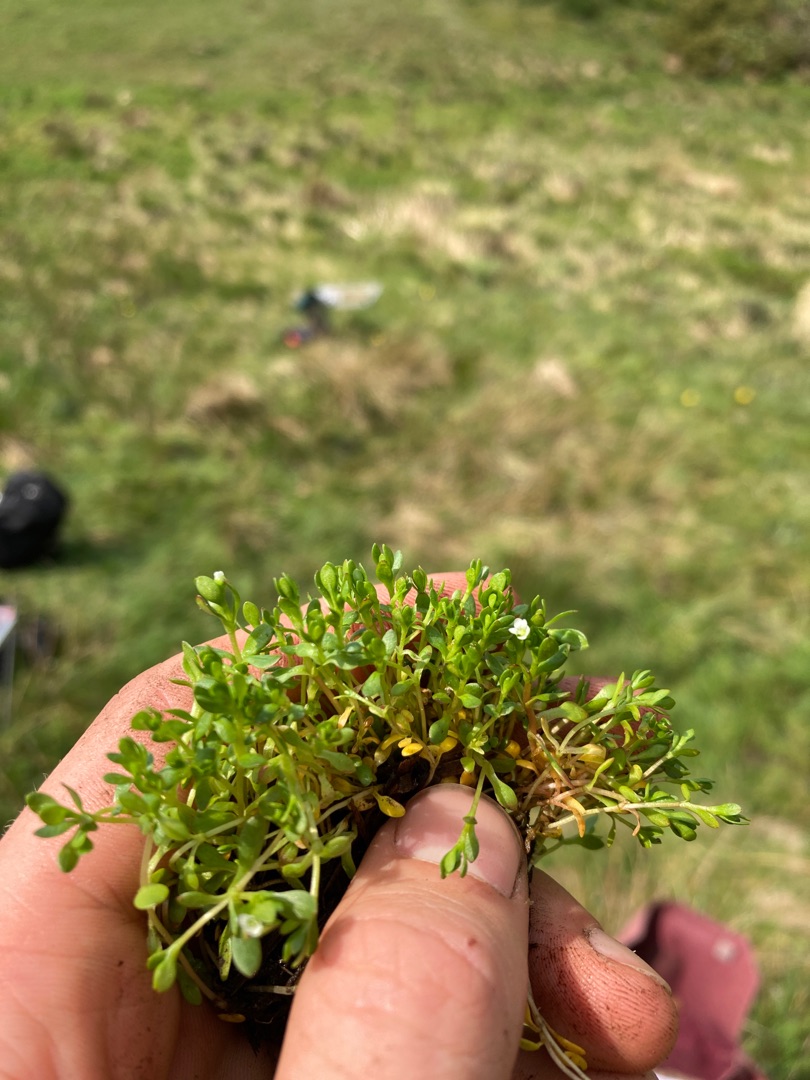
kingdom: Plantae
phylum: Tracheophyta
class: Magnoliopsida
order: Caryophyllales
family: Montiaceae
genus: Montia
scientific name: Montia fontana
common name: Stor vandarve
